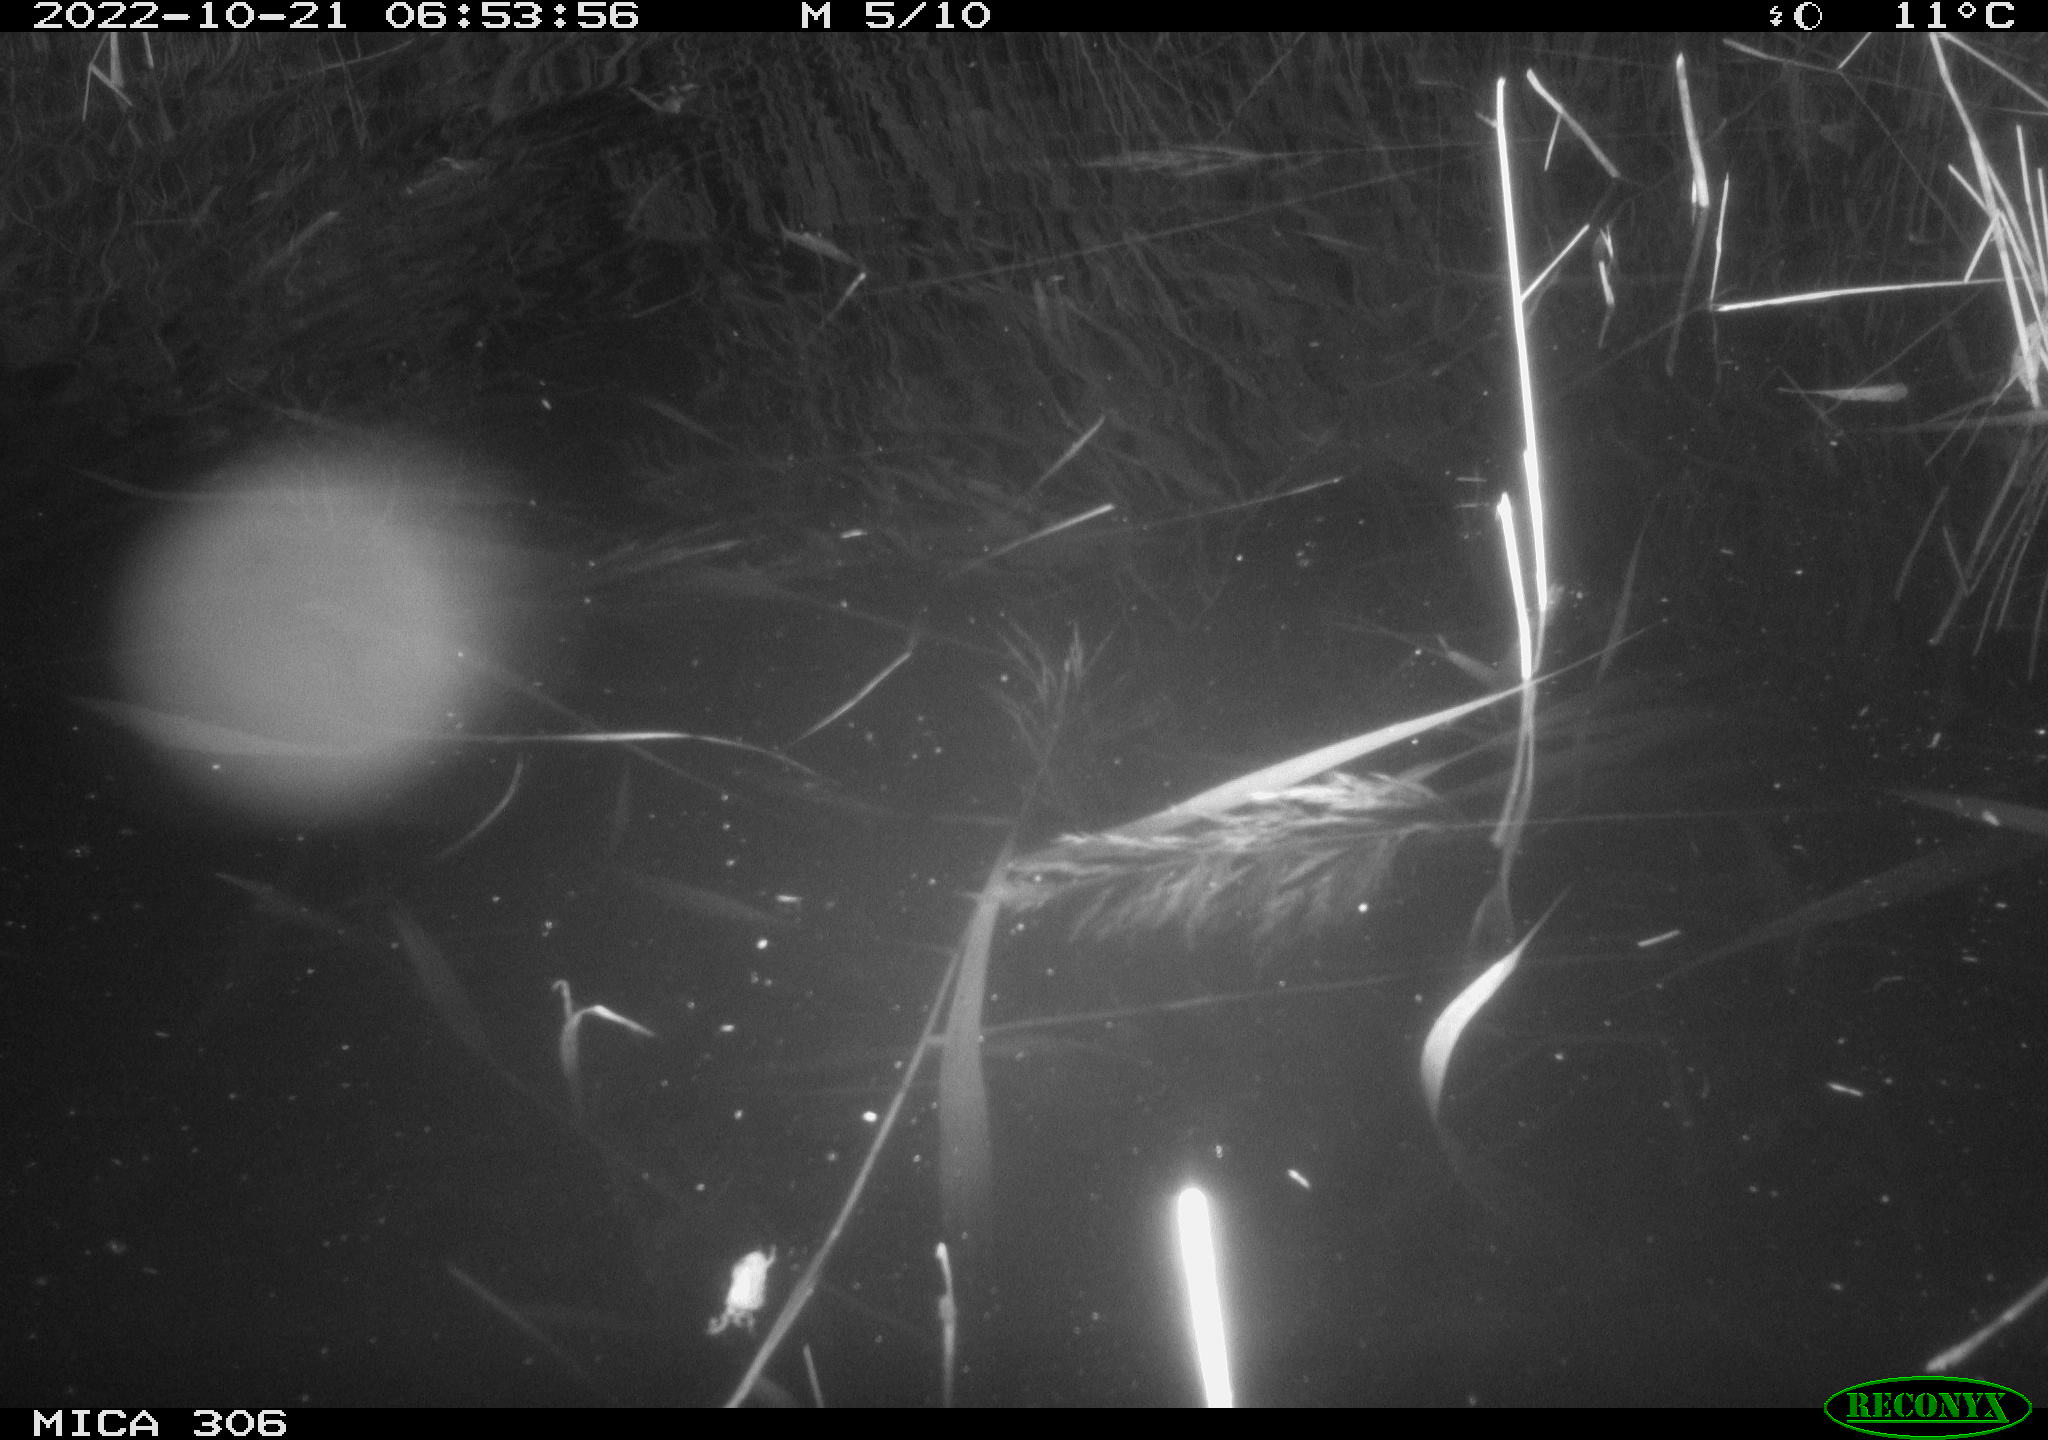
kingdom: Animalia
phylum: Chordata
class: Mammalia
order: Rodentia
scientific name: Rodentia
